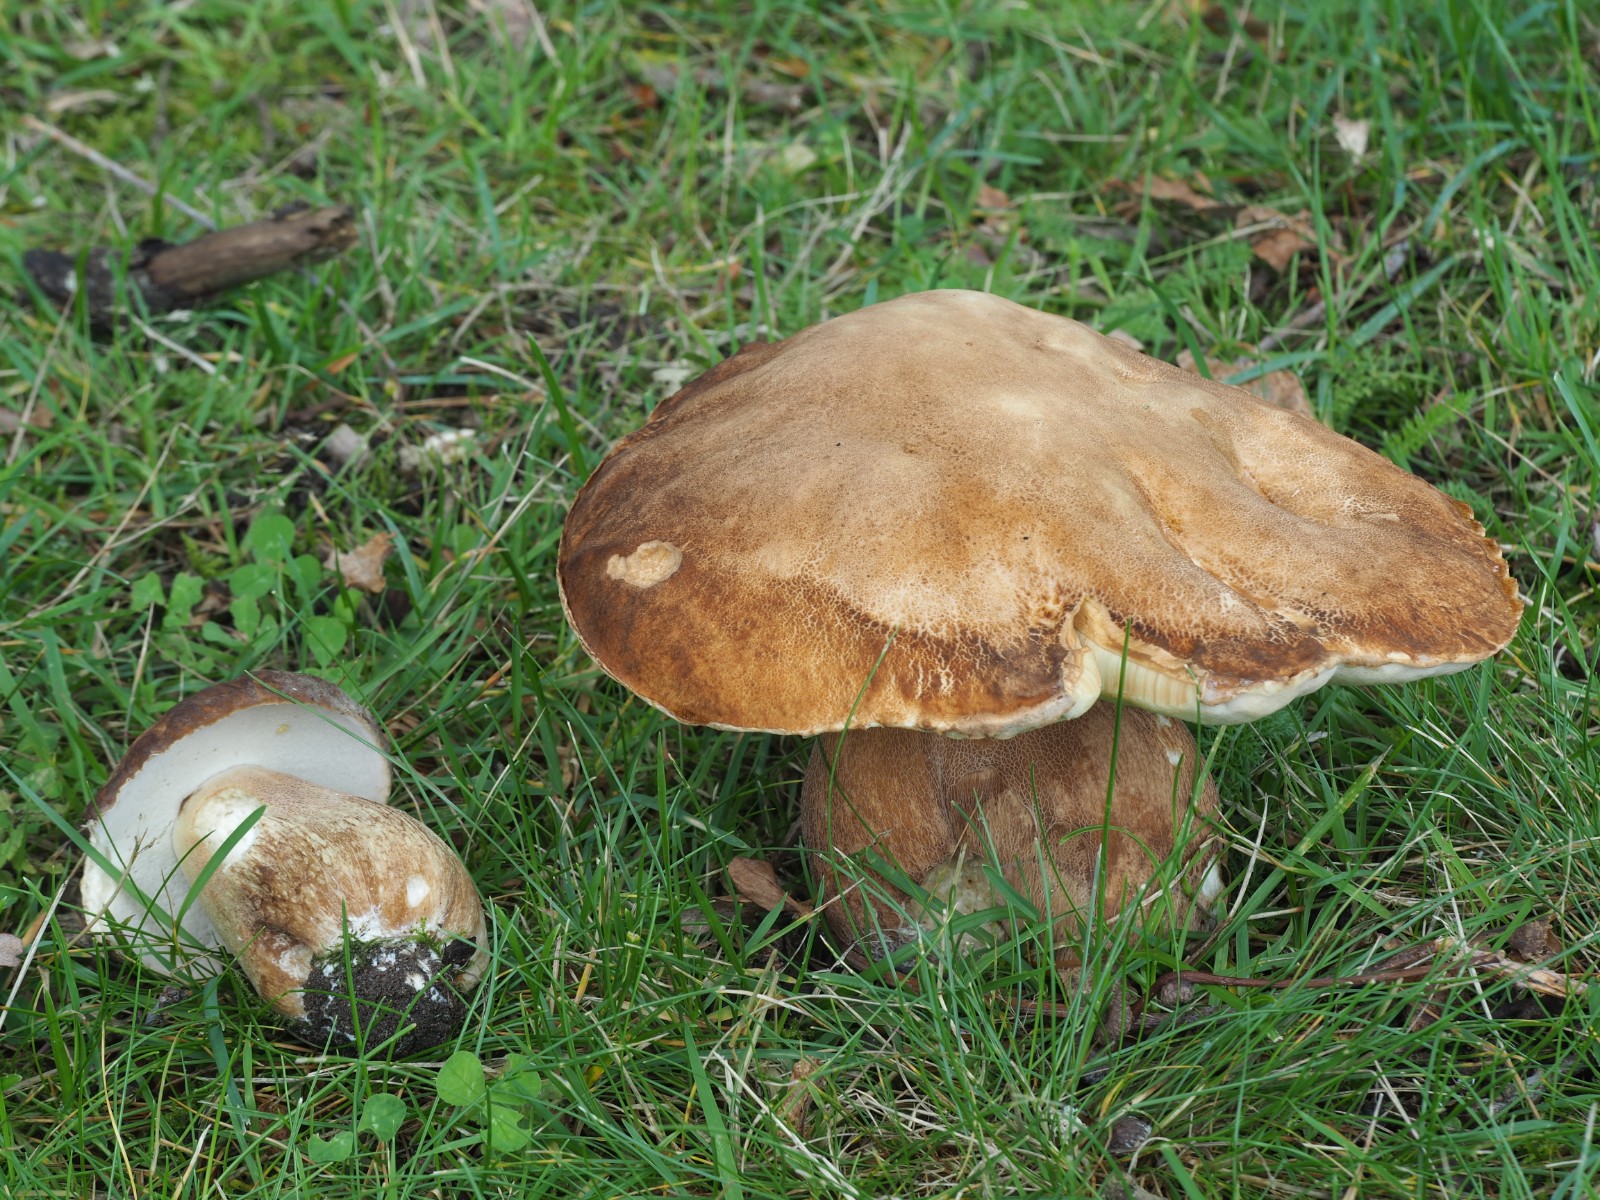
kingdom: Fungi
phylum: Basidiomycota
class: Agaricomycetes
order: Boletales
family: Boletaceae
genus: Boletus
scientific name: Boletus reticulatus
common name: sommer-rørhat
